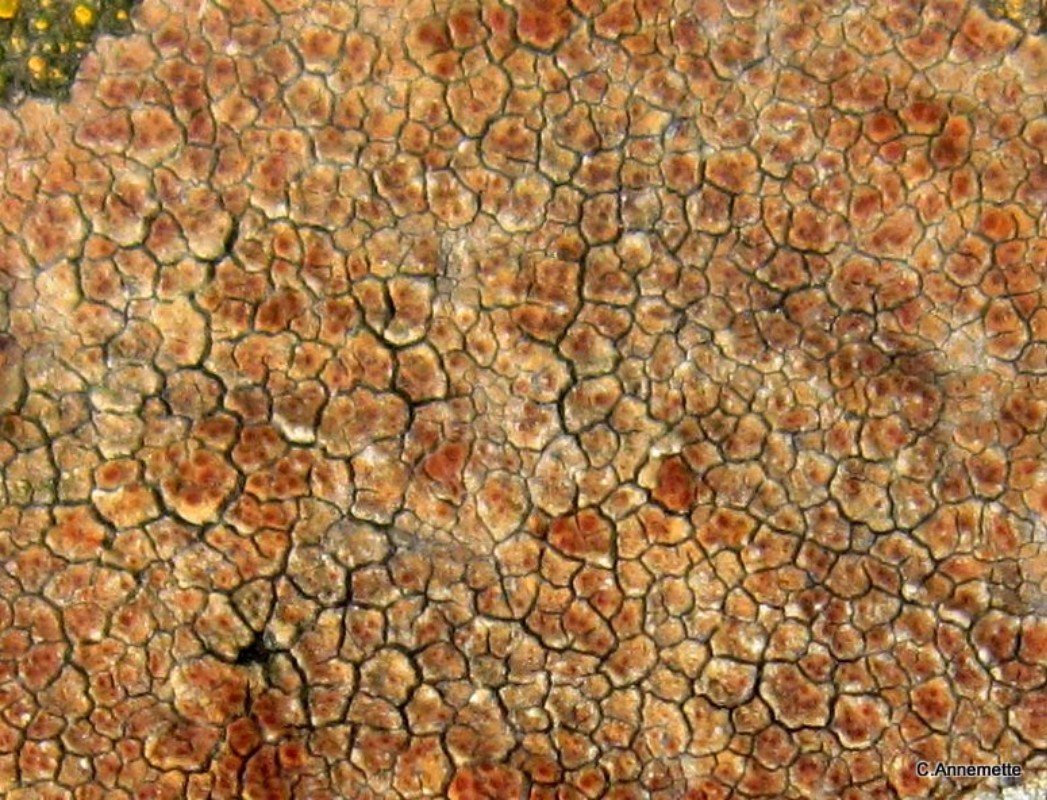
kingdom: Fungi
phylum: Ascomycota
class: Lecanoromycetes
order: Acarosporales
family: Acarosporaceae
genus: Acarospora
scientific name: Acarospora fuscata
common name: brun småsporelav
